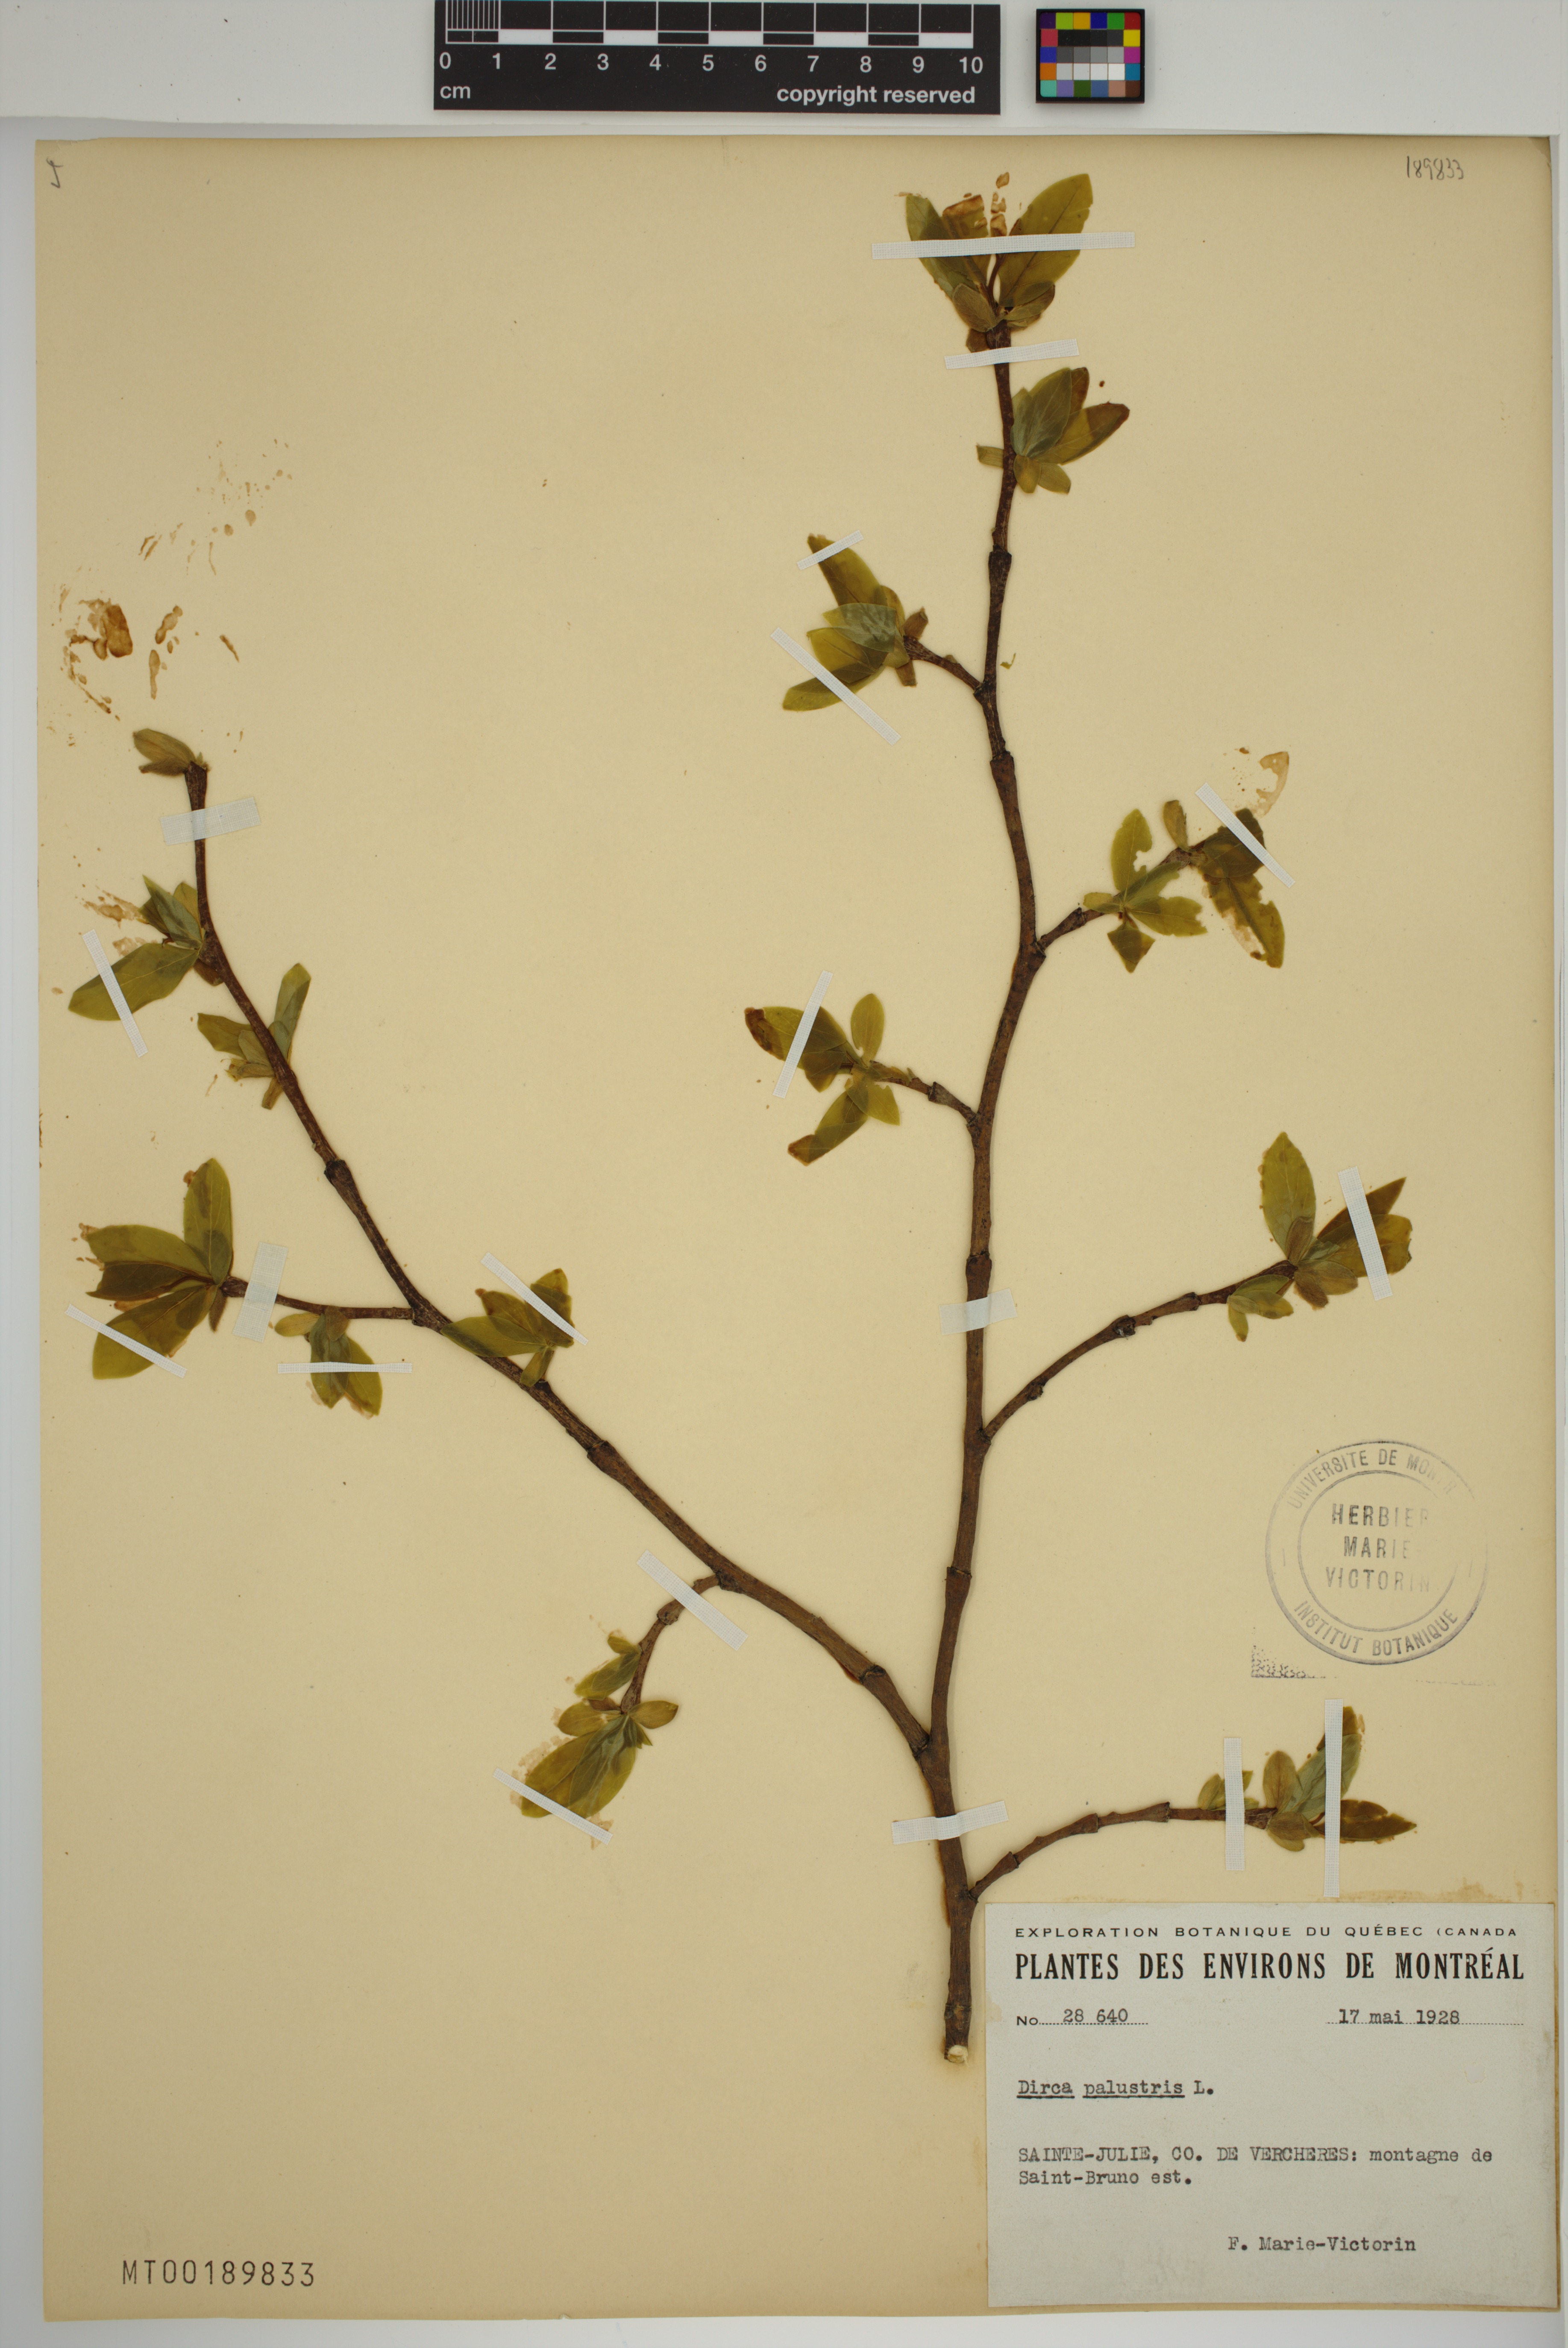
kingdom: Plantae
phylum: Tracheophyta
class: Magnoliopsida
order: Malvales
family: Thymelaeaceae
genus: Dirca
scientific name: Dirca palustris
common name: Leatherwood
